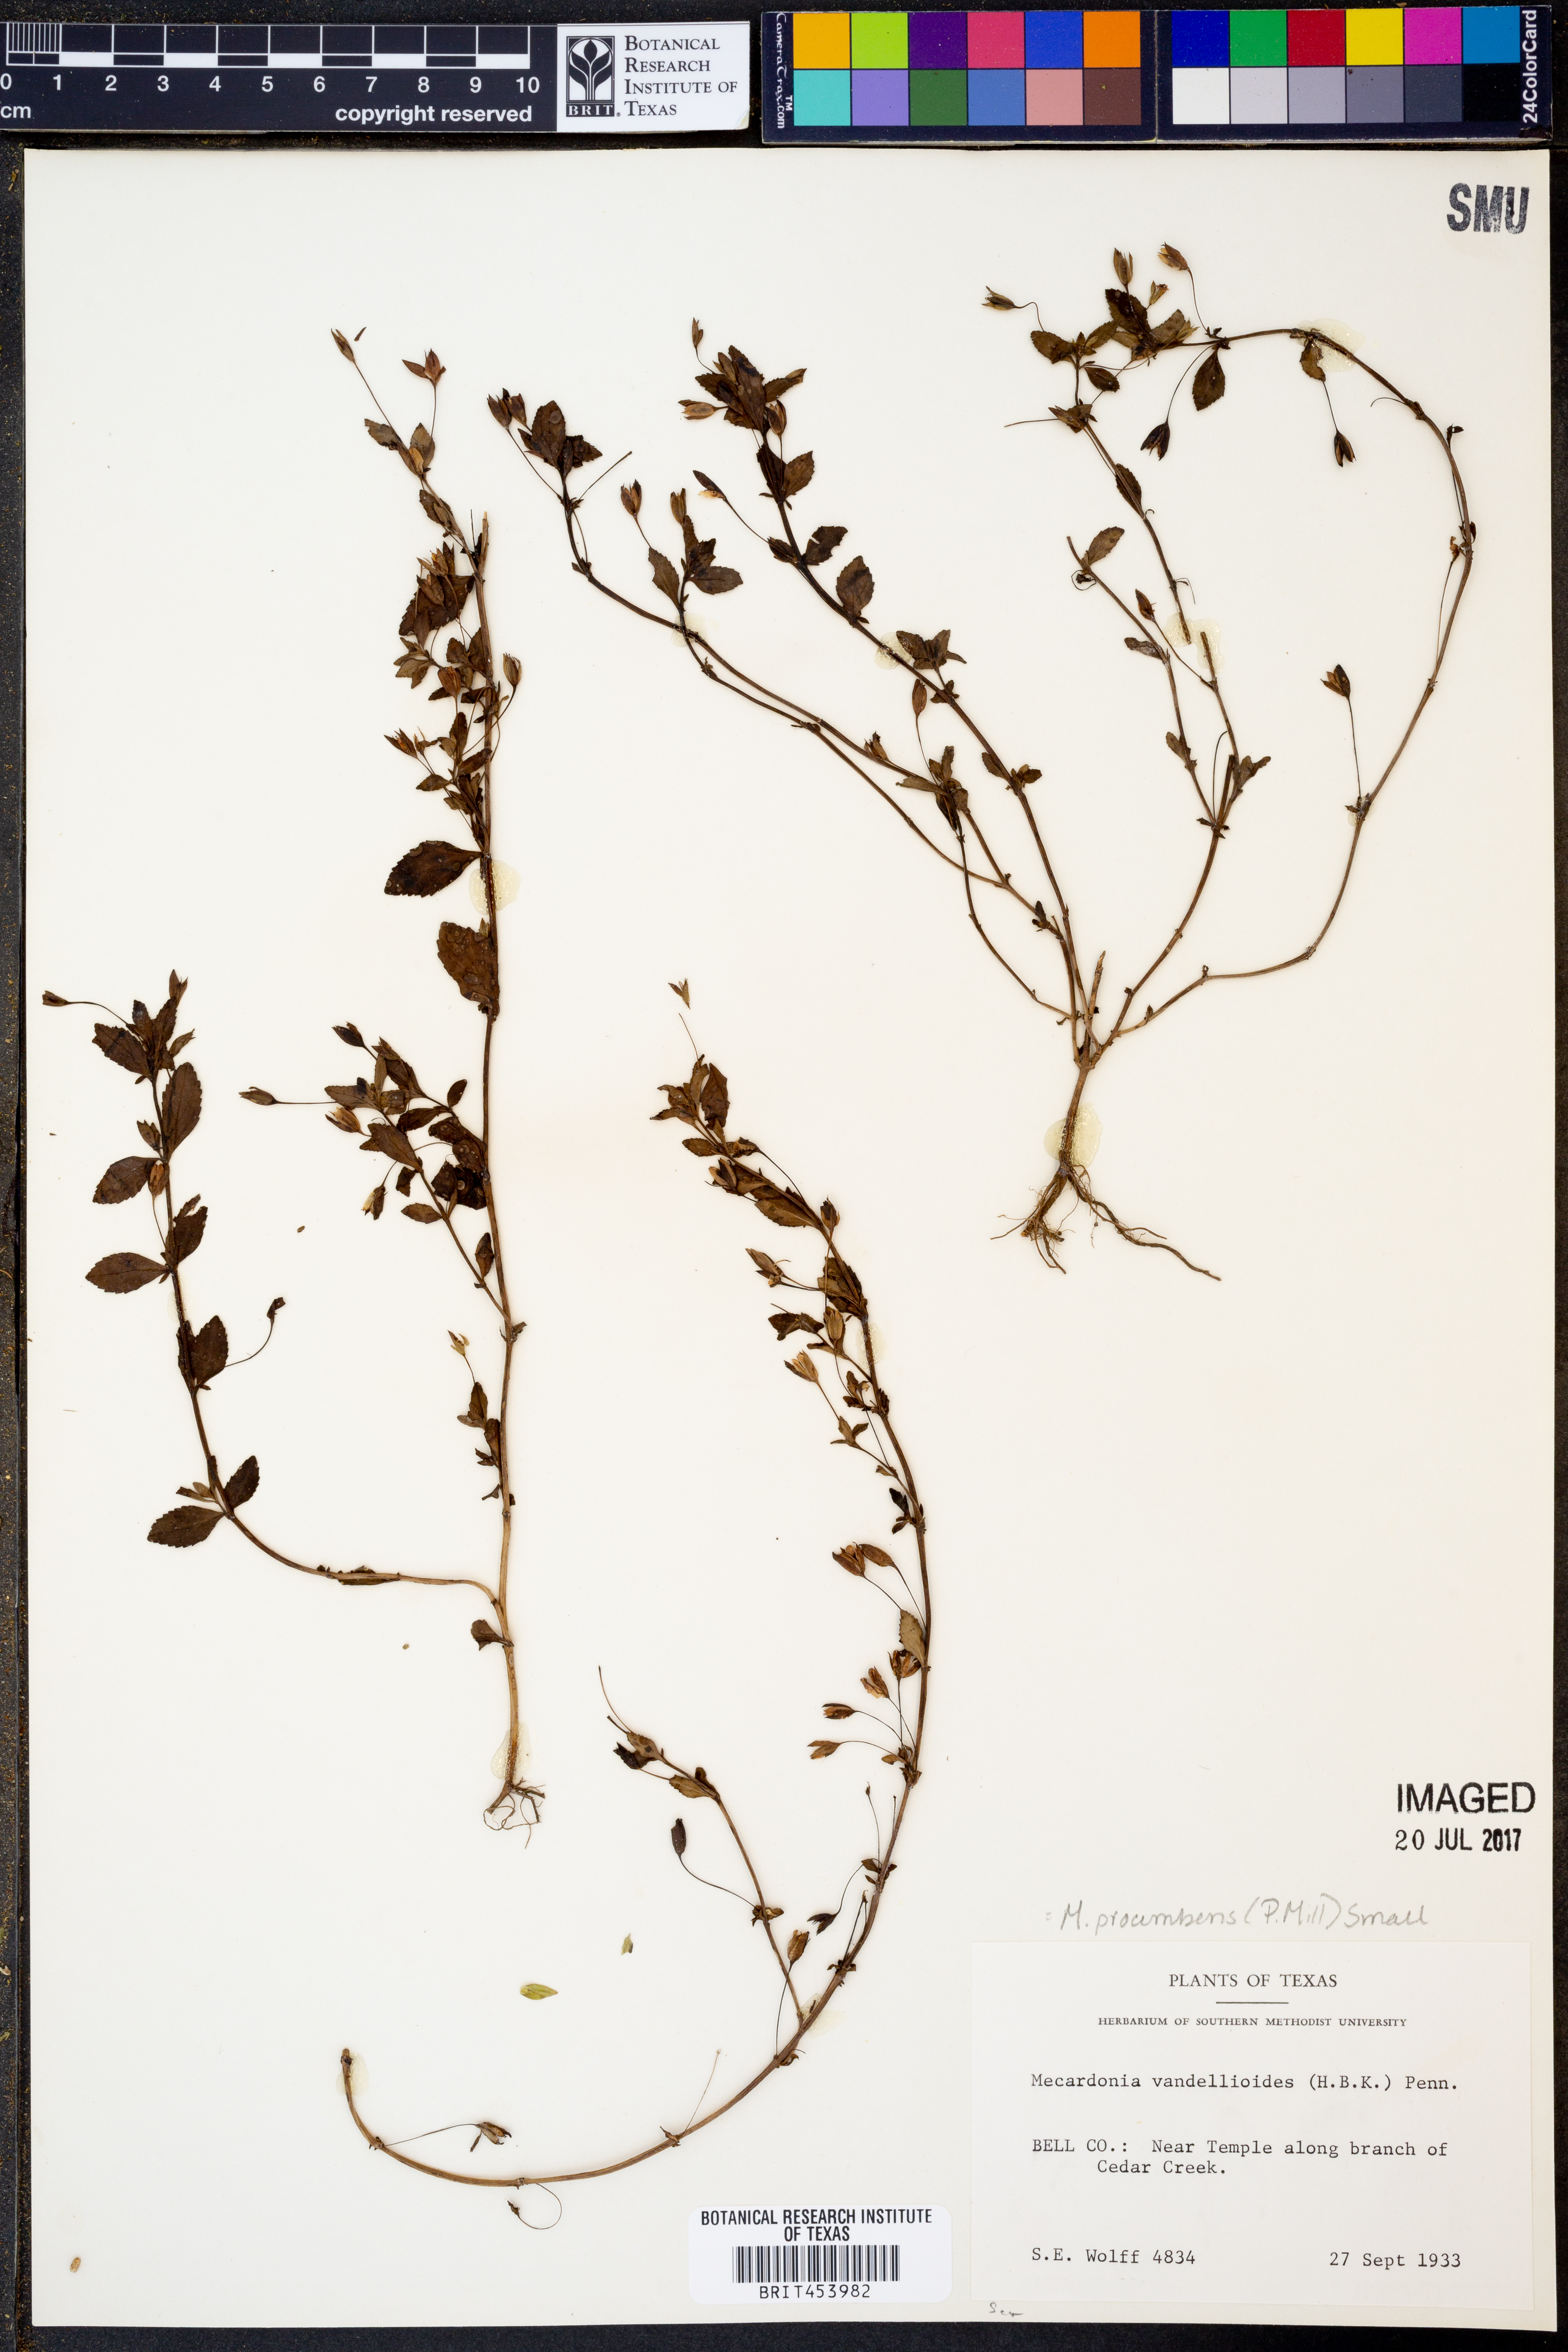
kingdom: Plantae
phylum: Tracheophyta
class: Magnoliopsida
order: Lamiales
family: Plantaginaceae
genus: Mecardonia
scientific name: Mecardonia procumbens
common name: Baby jump-up
